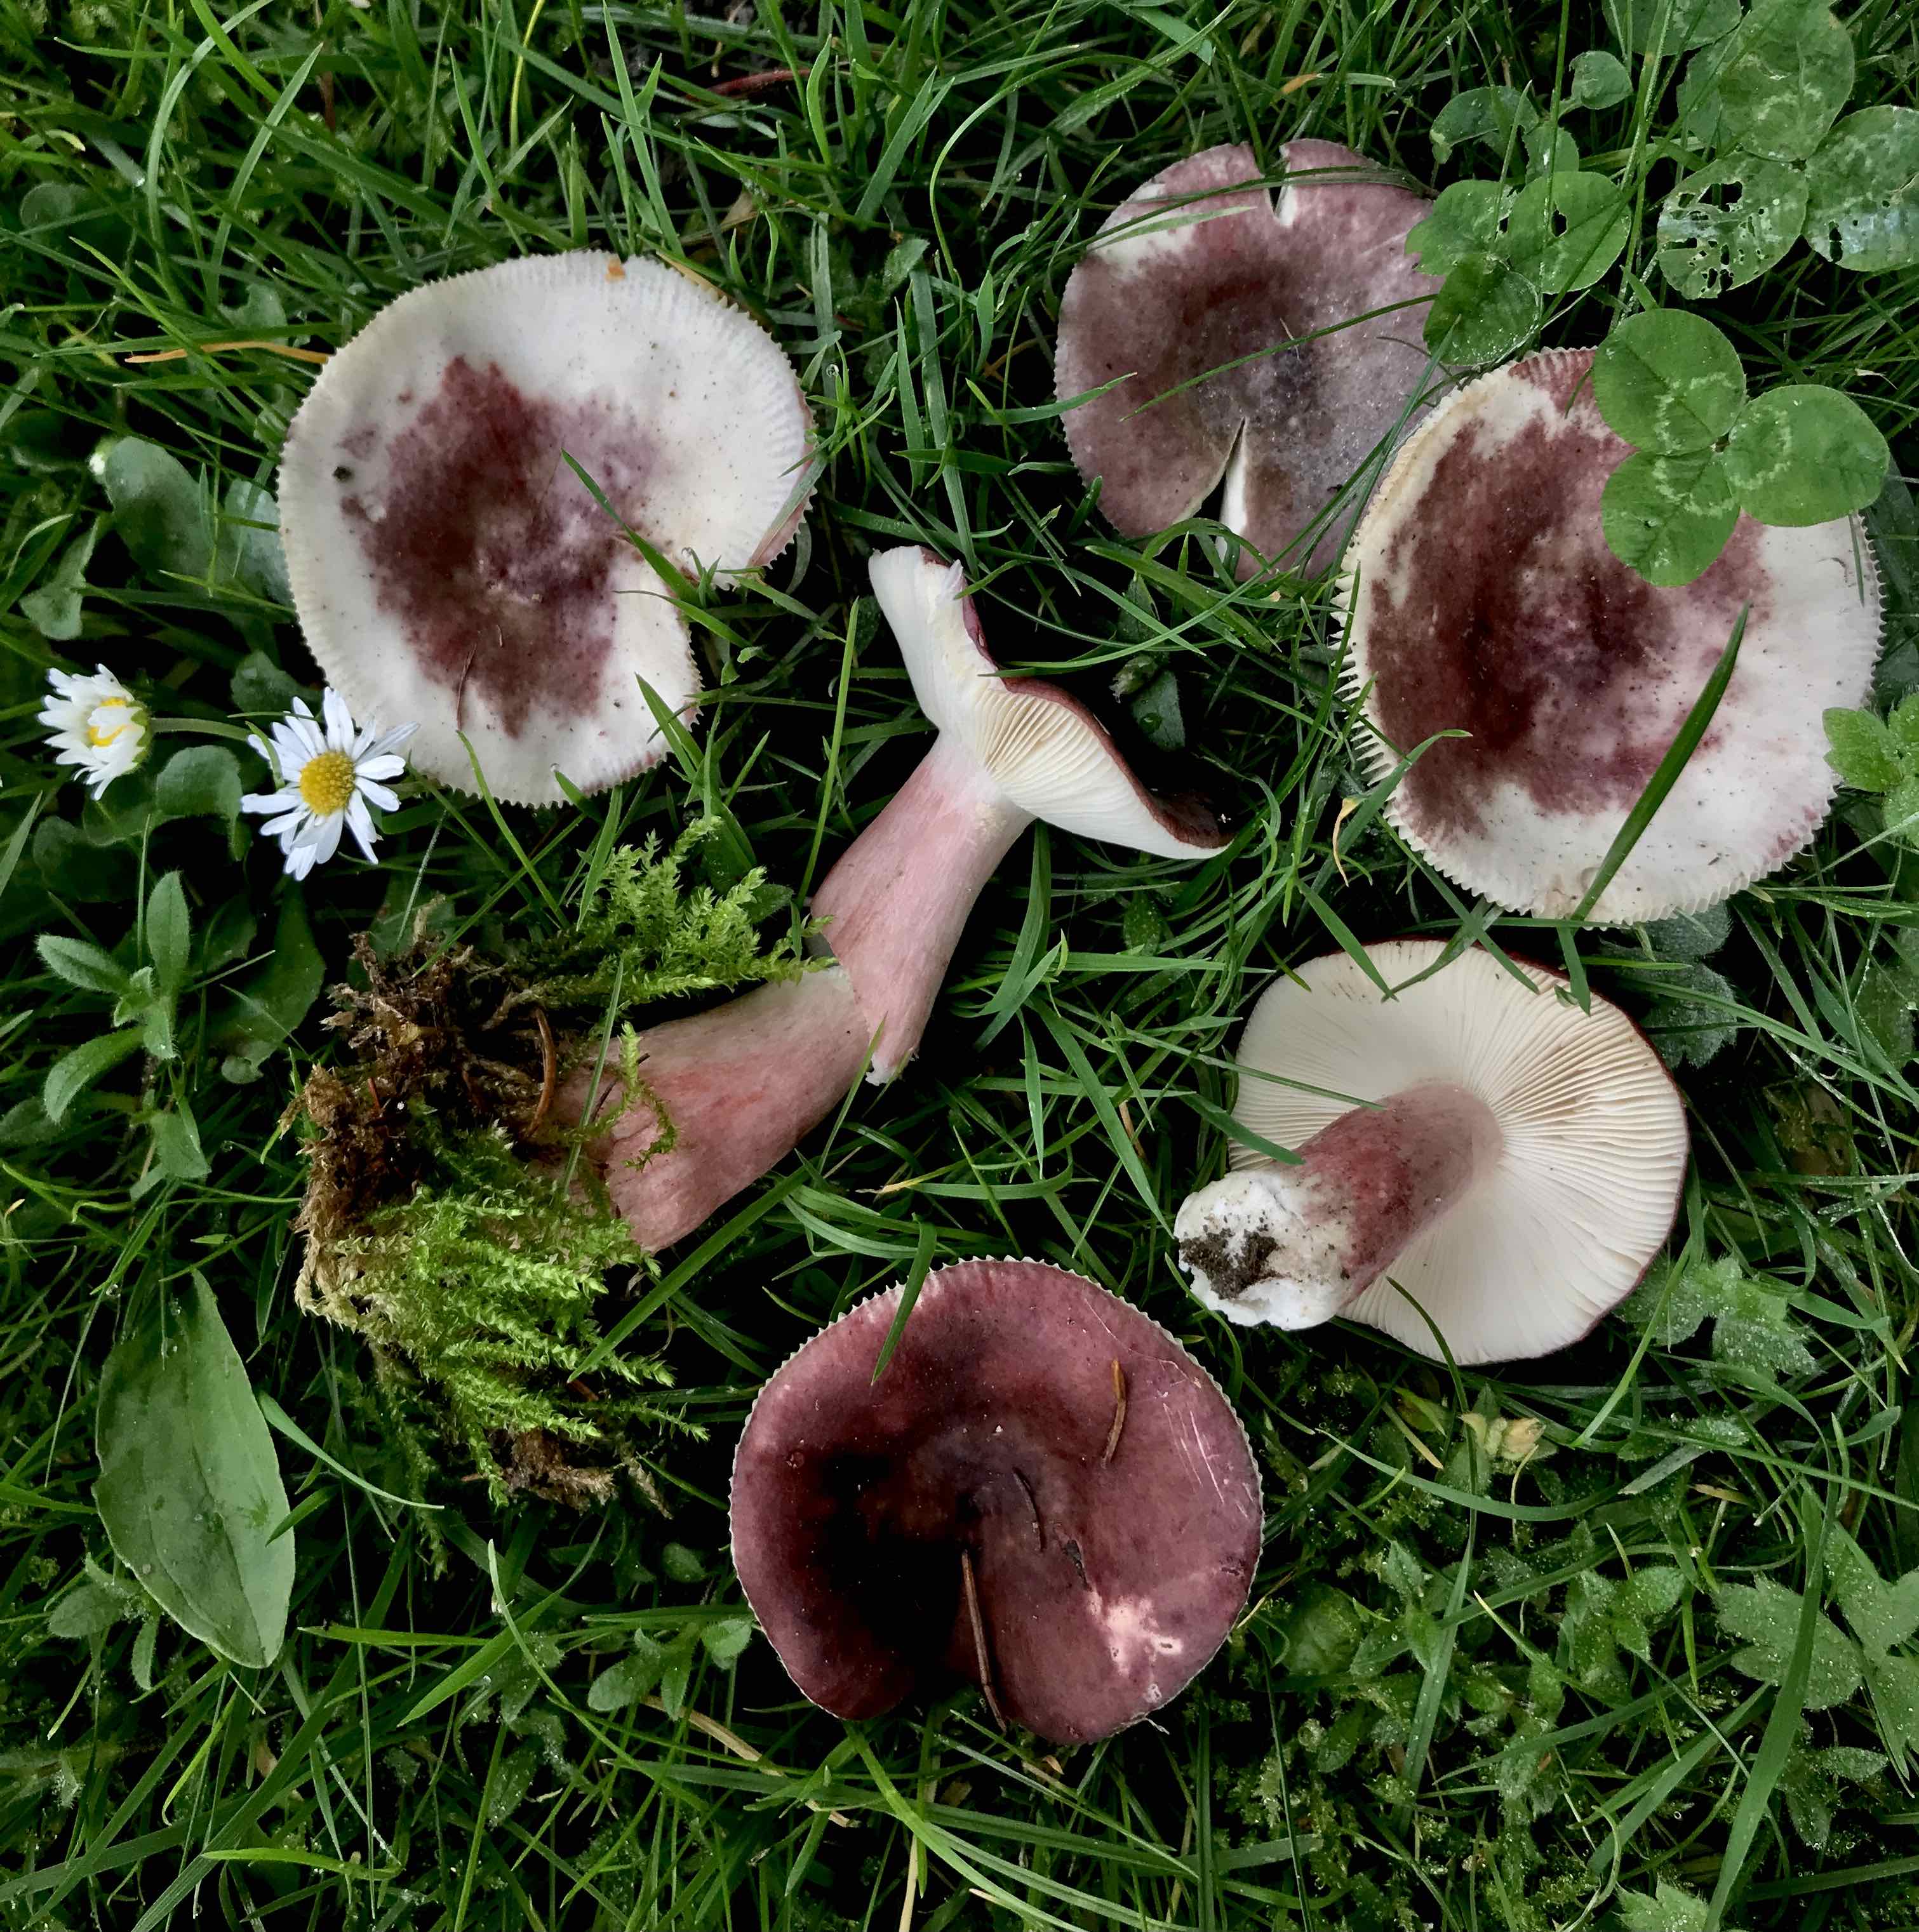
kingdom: Fungi
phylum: Basidiomycota
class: Agaricomycetes
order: Russulales
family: Russulaceae
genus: Russula
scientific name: Russula queletii
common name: Quélets skørhat
